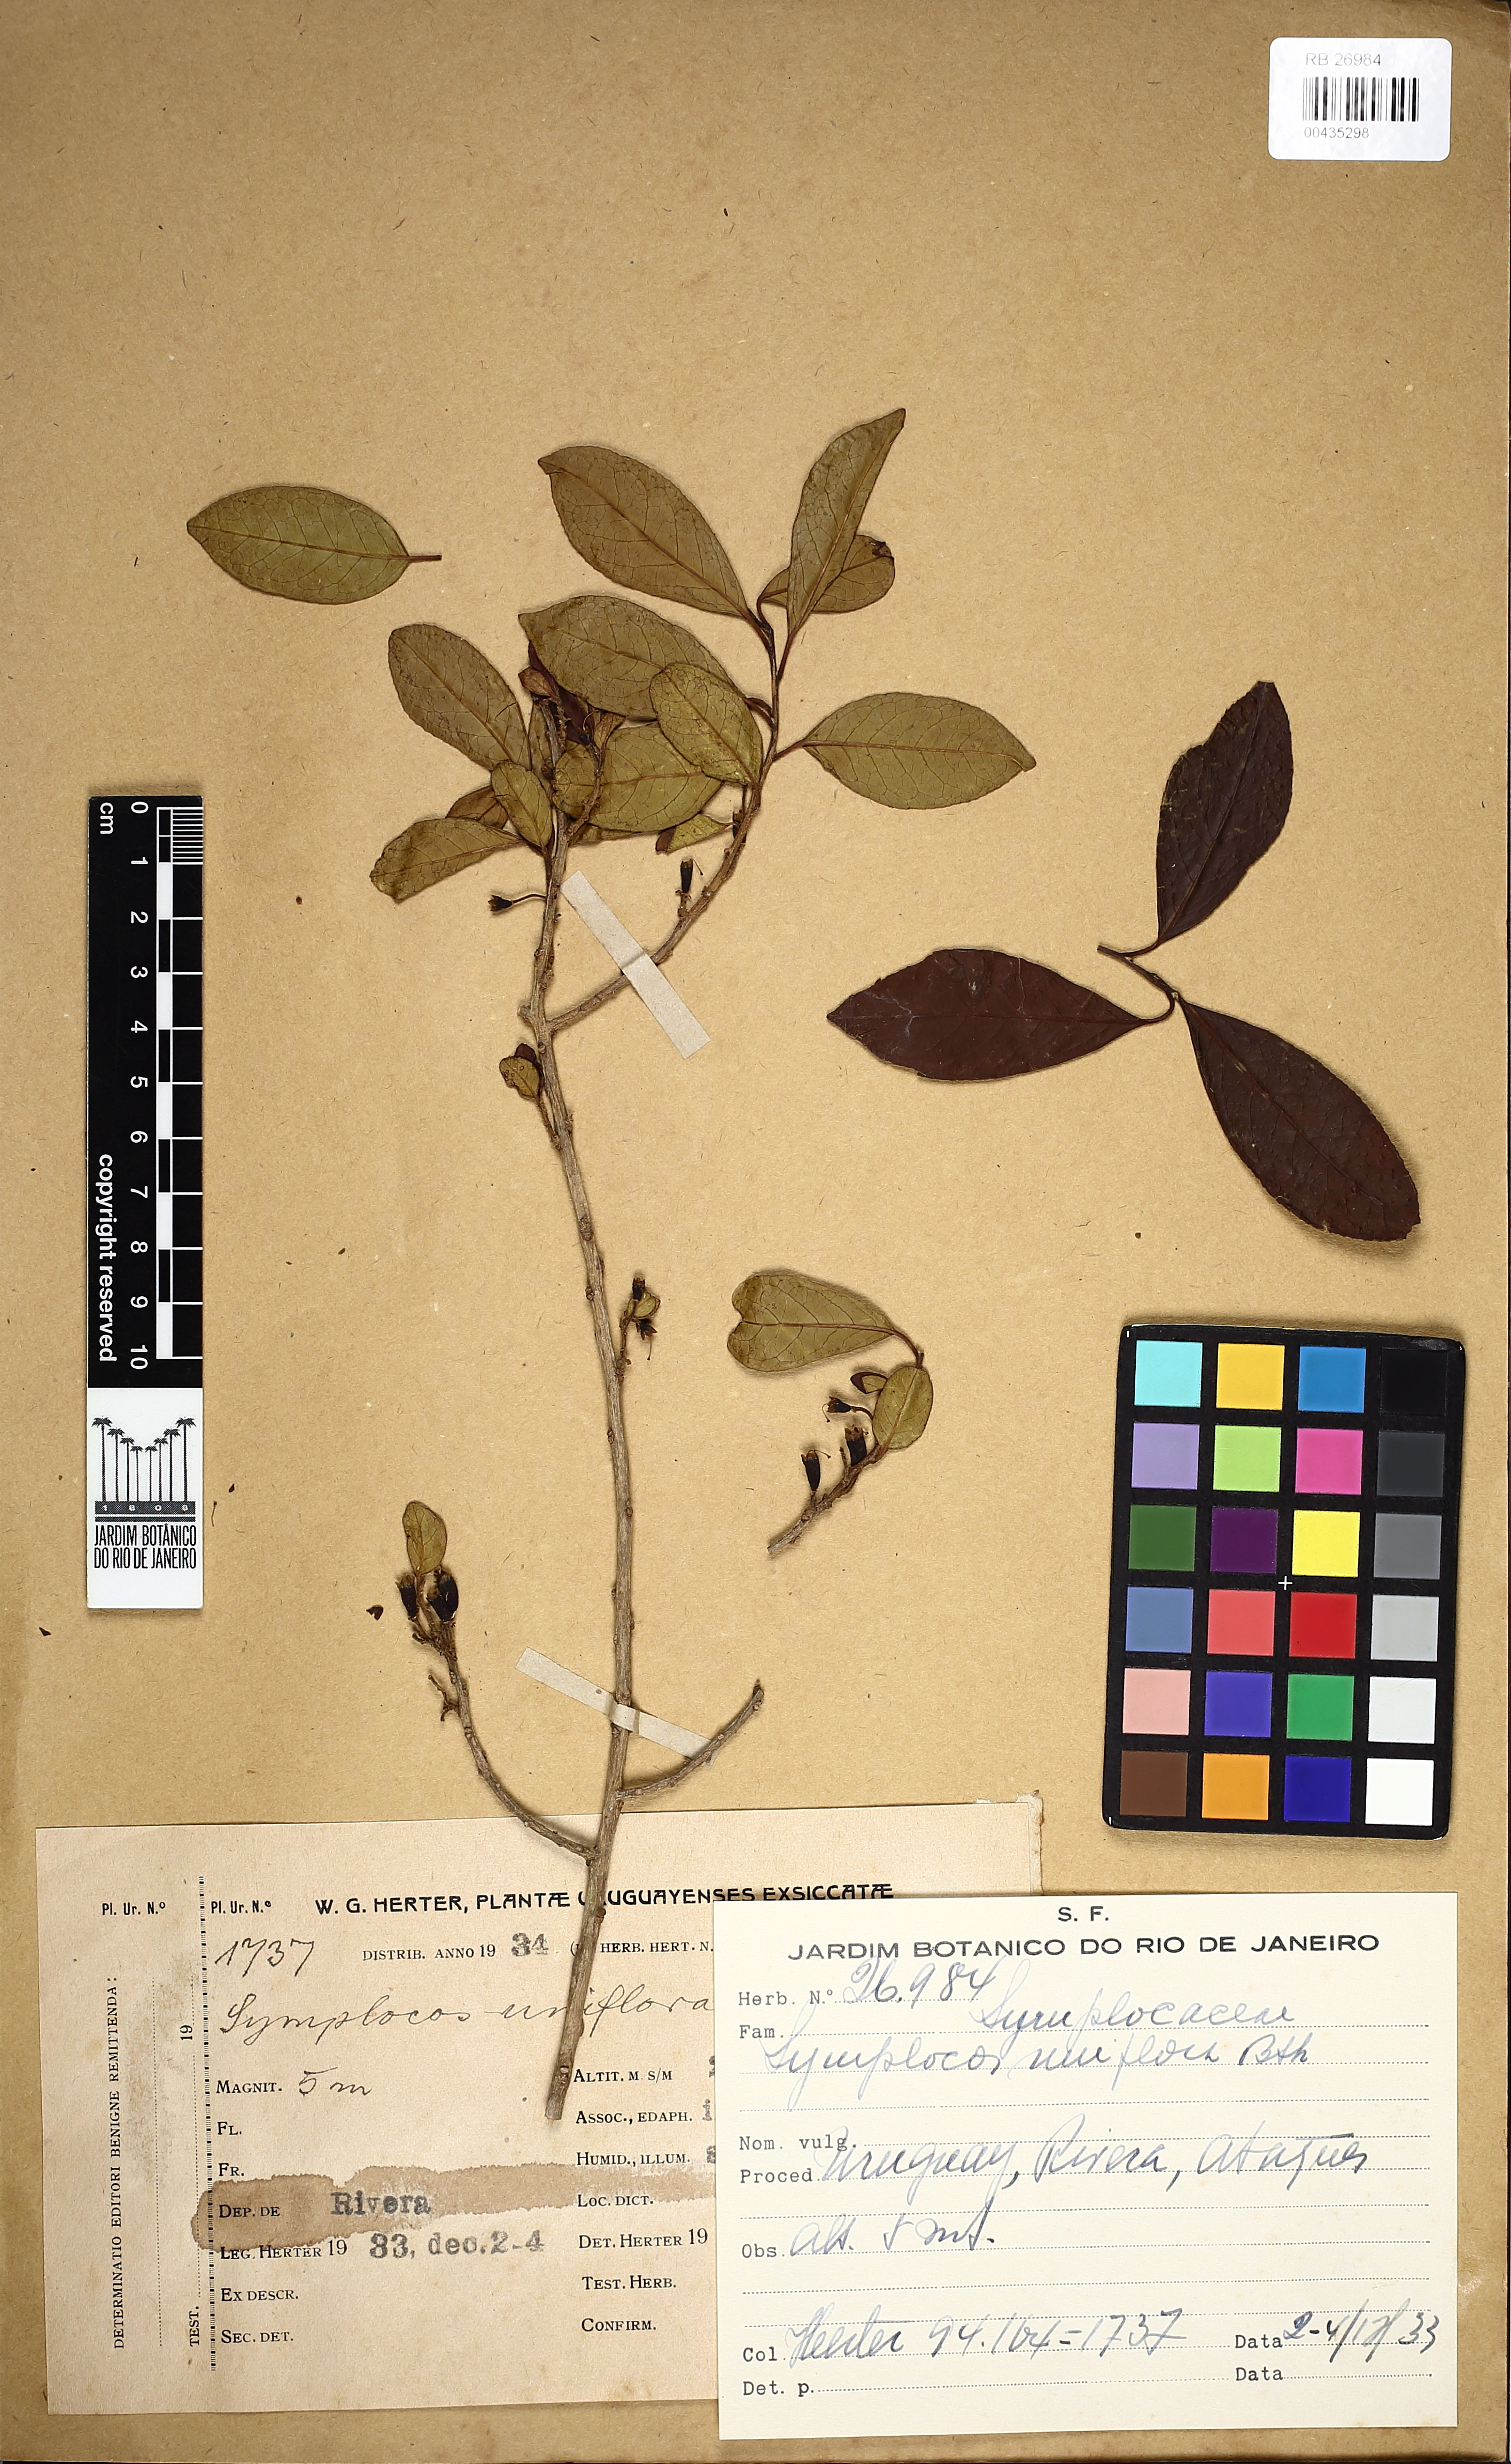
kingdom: Plantae
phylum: Tracheophyta
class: Magnoliopsida
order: Ericales
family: Symplocaceae
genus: Symplocos
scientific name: Symplocos uniflora
